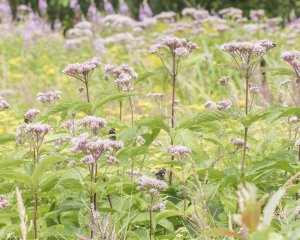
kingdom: Animalia
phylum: Arthropoda
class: Insecta
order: Lepidoptera
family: Nymphalidae
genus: Vanessa
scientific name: Vanessa atalanta
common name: Red Admiral
